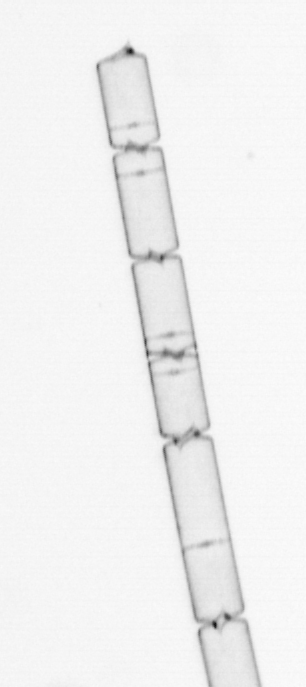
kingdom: Chromista
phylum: Ochrophyta
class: Bacillariophyceae
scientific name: Bacillariophyceae
